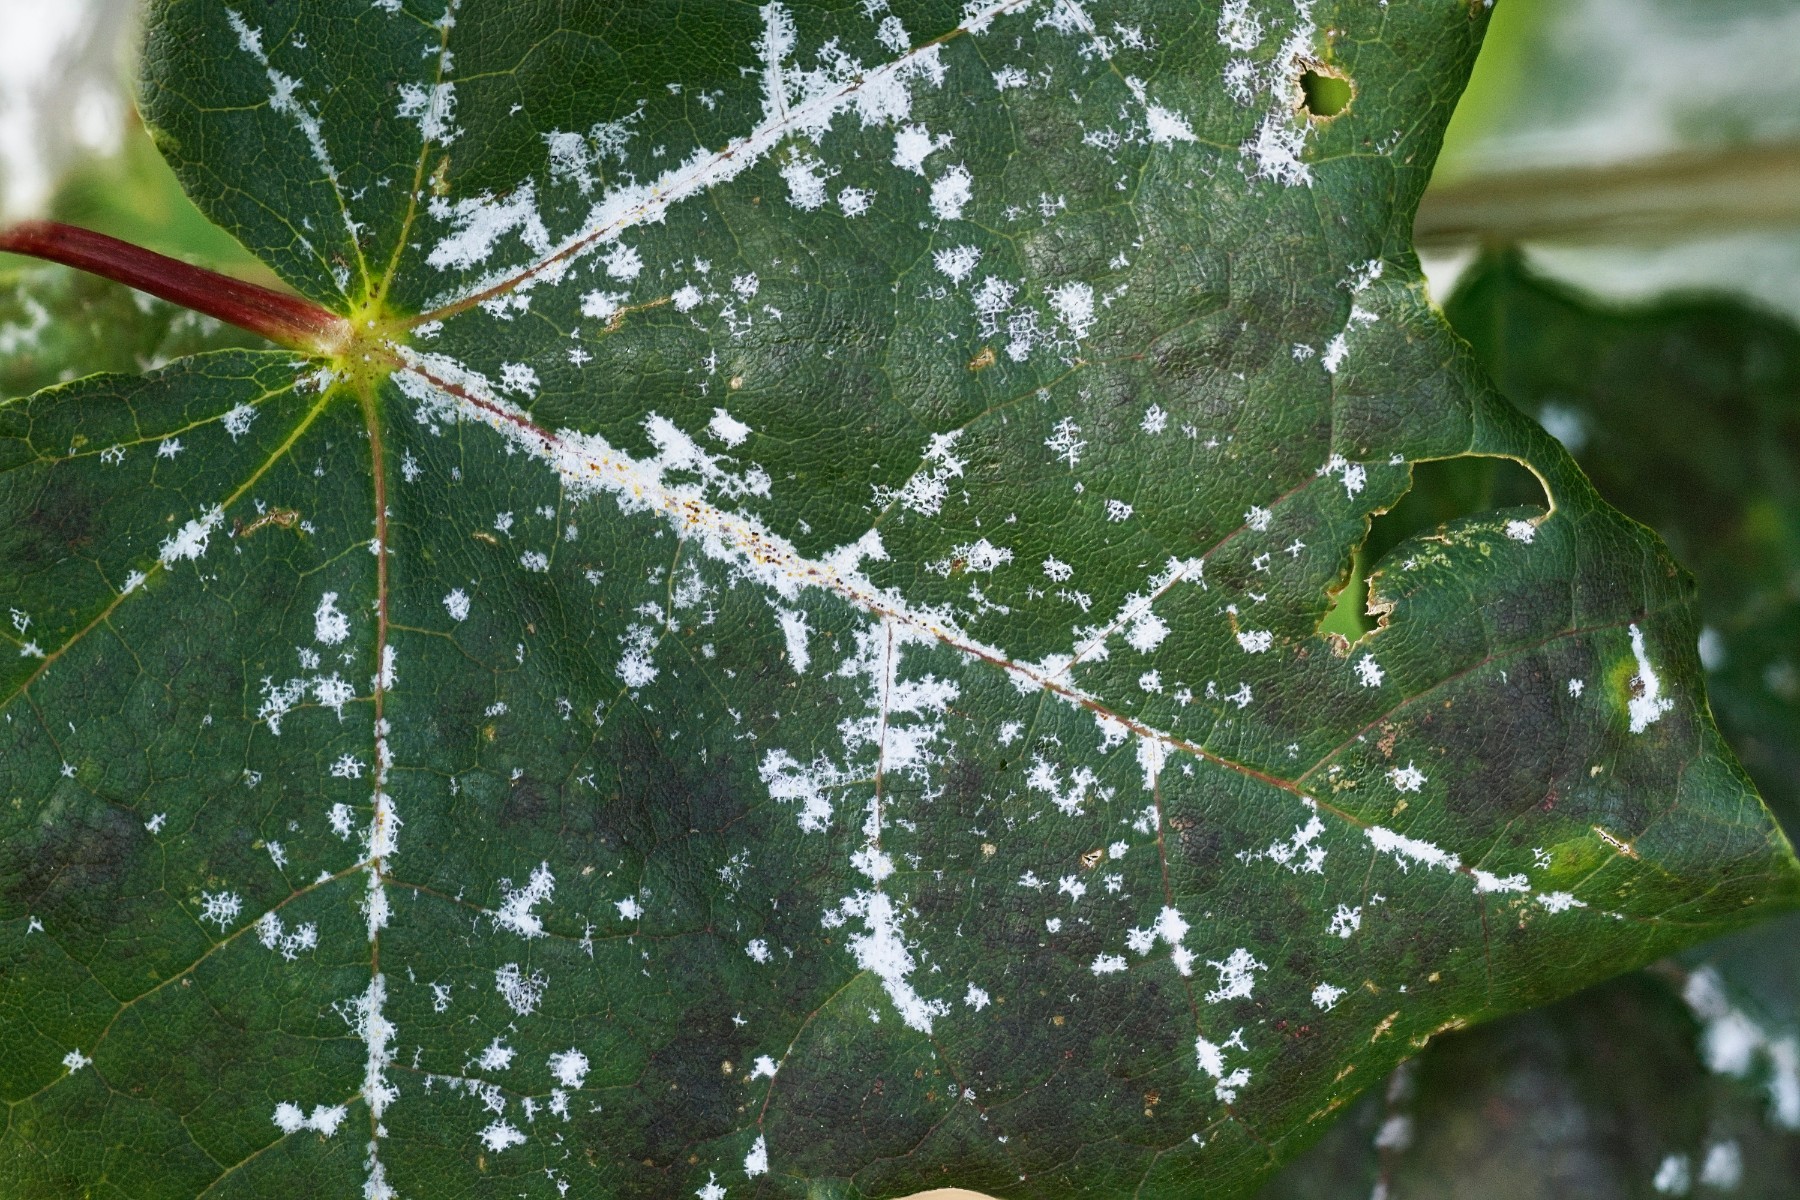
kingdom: Fungi
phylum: Ascomycota
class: Leotiomycetes
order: Helotiales
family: Erysiphaceae
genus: Sawadaea
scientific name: Sawadaea tulasnei
